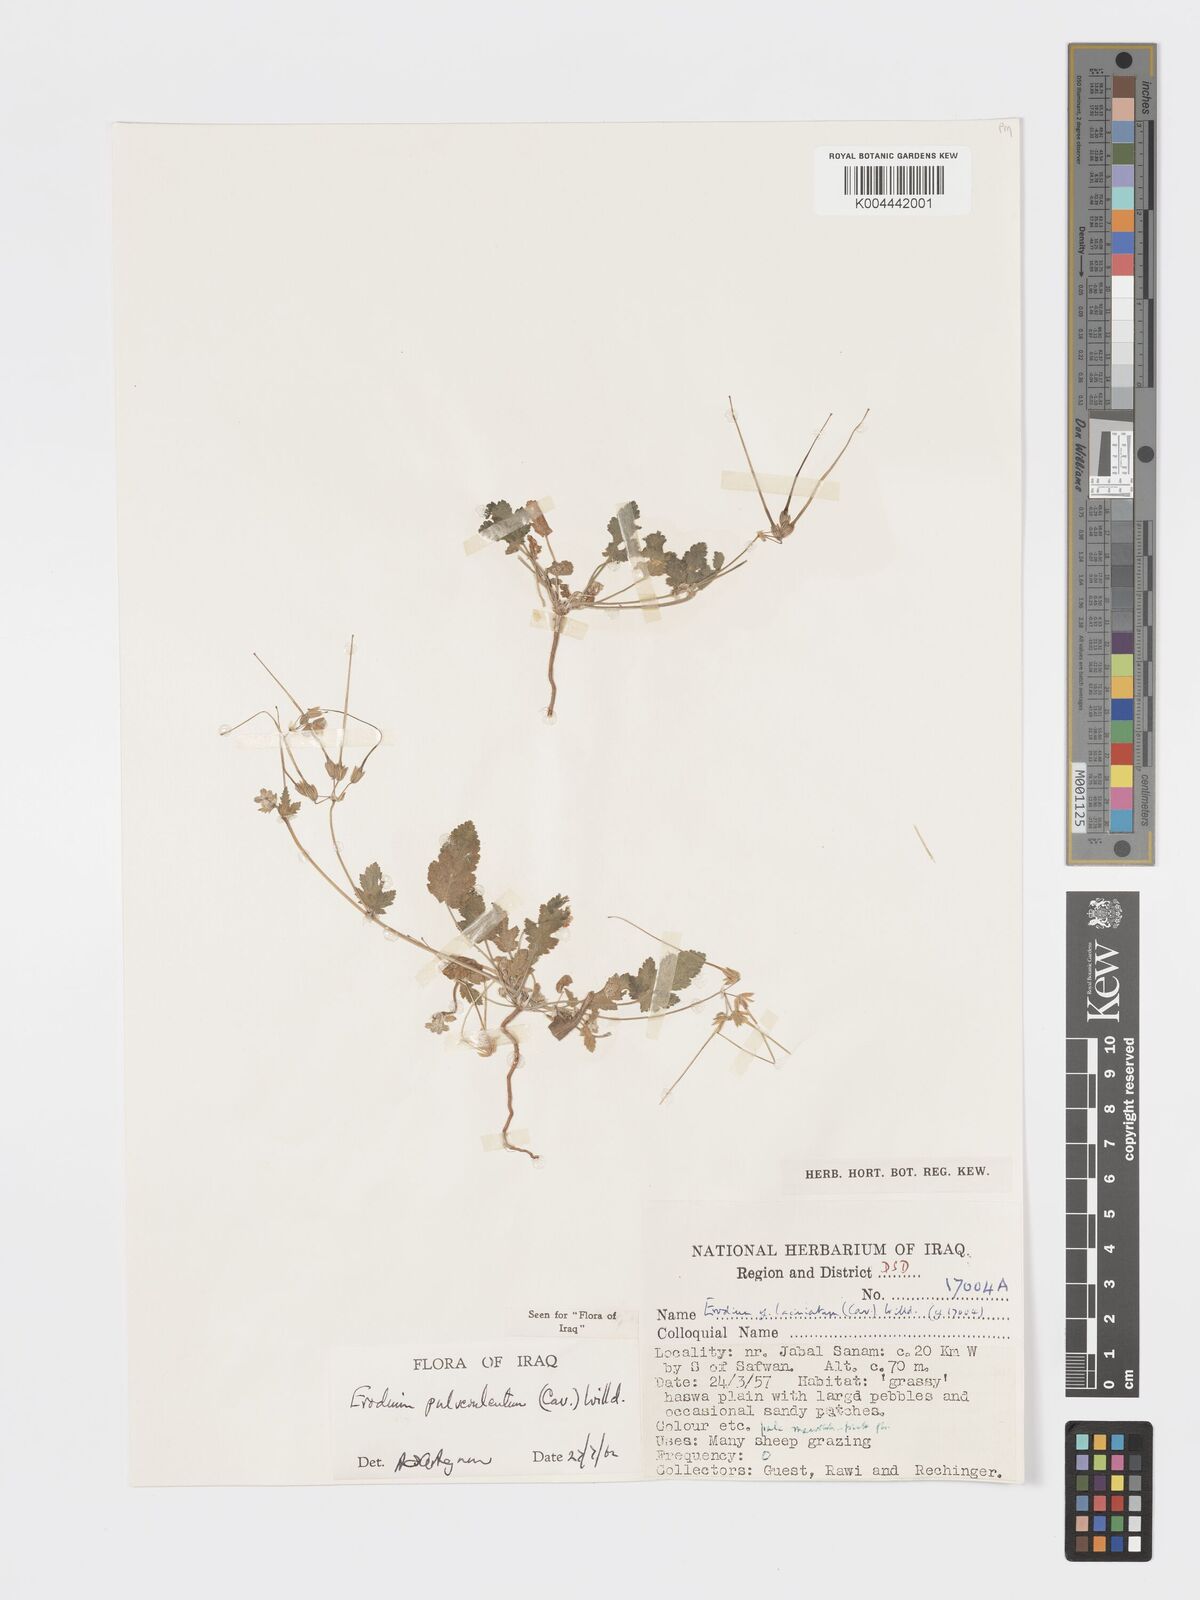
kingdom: Plantae
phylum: Tracheophyta
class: Magnoliopsida
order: Geraniales
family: Geraniaceae
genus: Erodium
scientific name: Erodium laciniatum
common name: Cutleaf stork's bill
